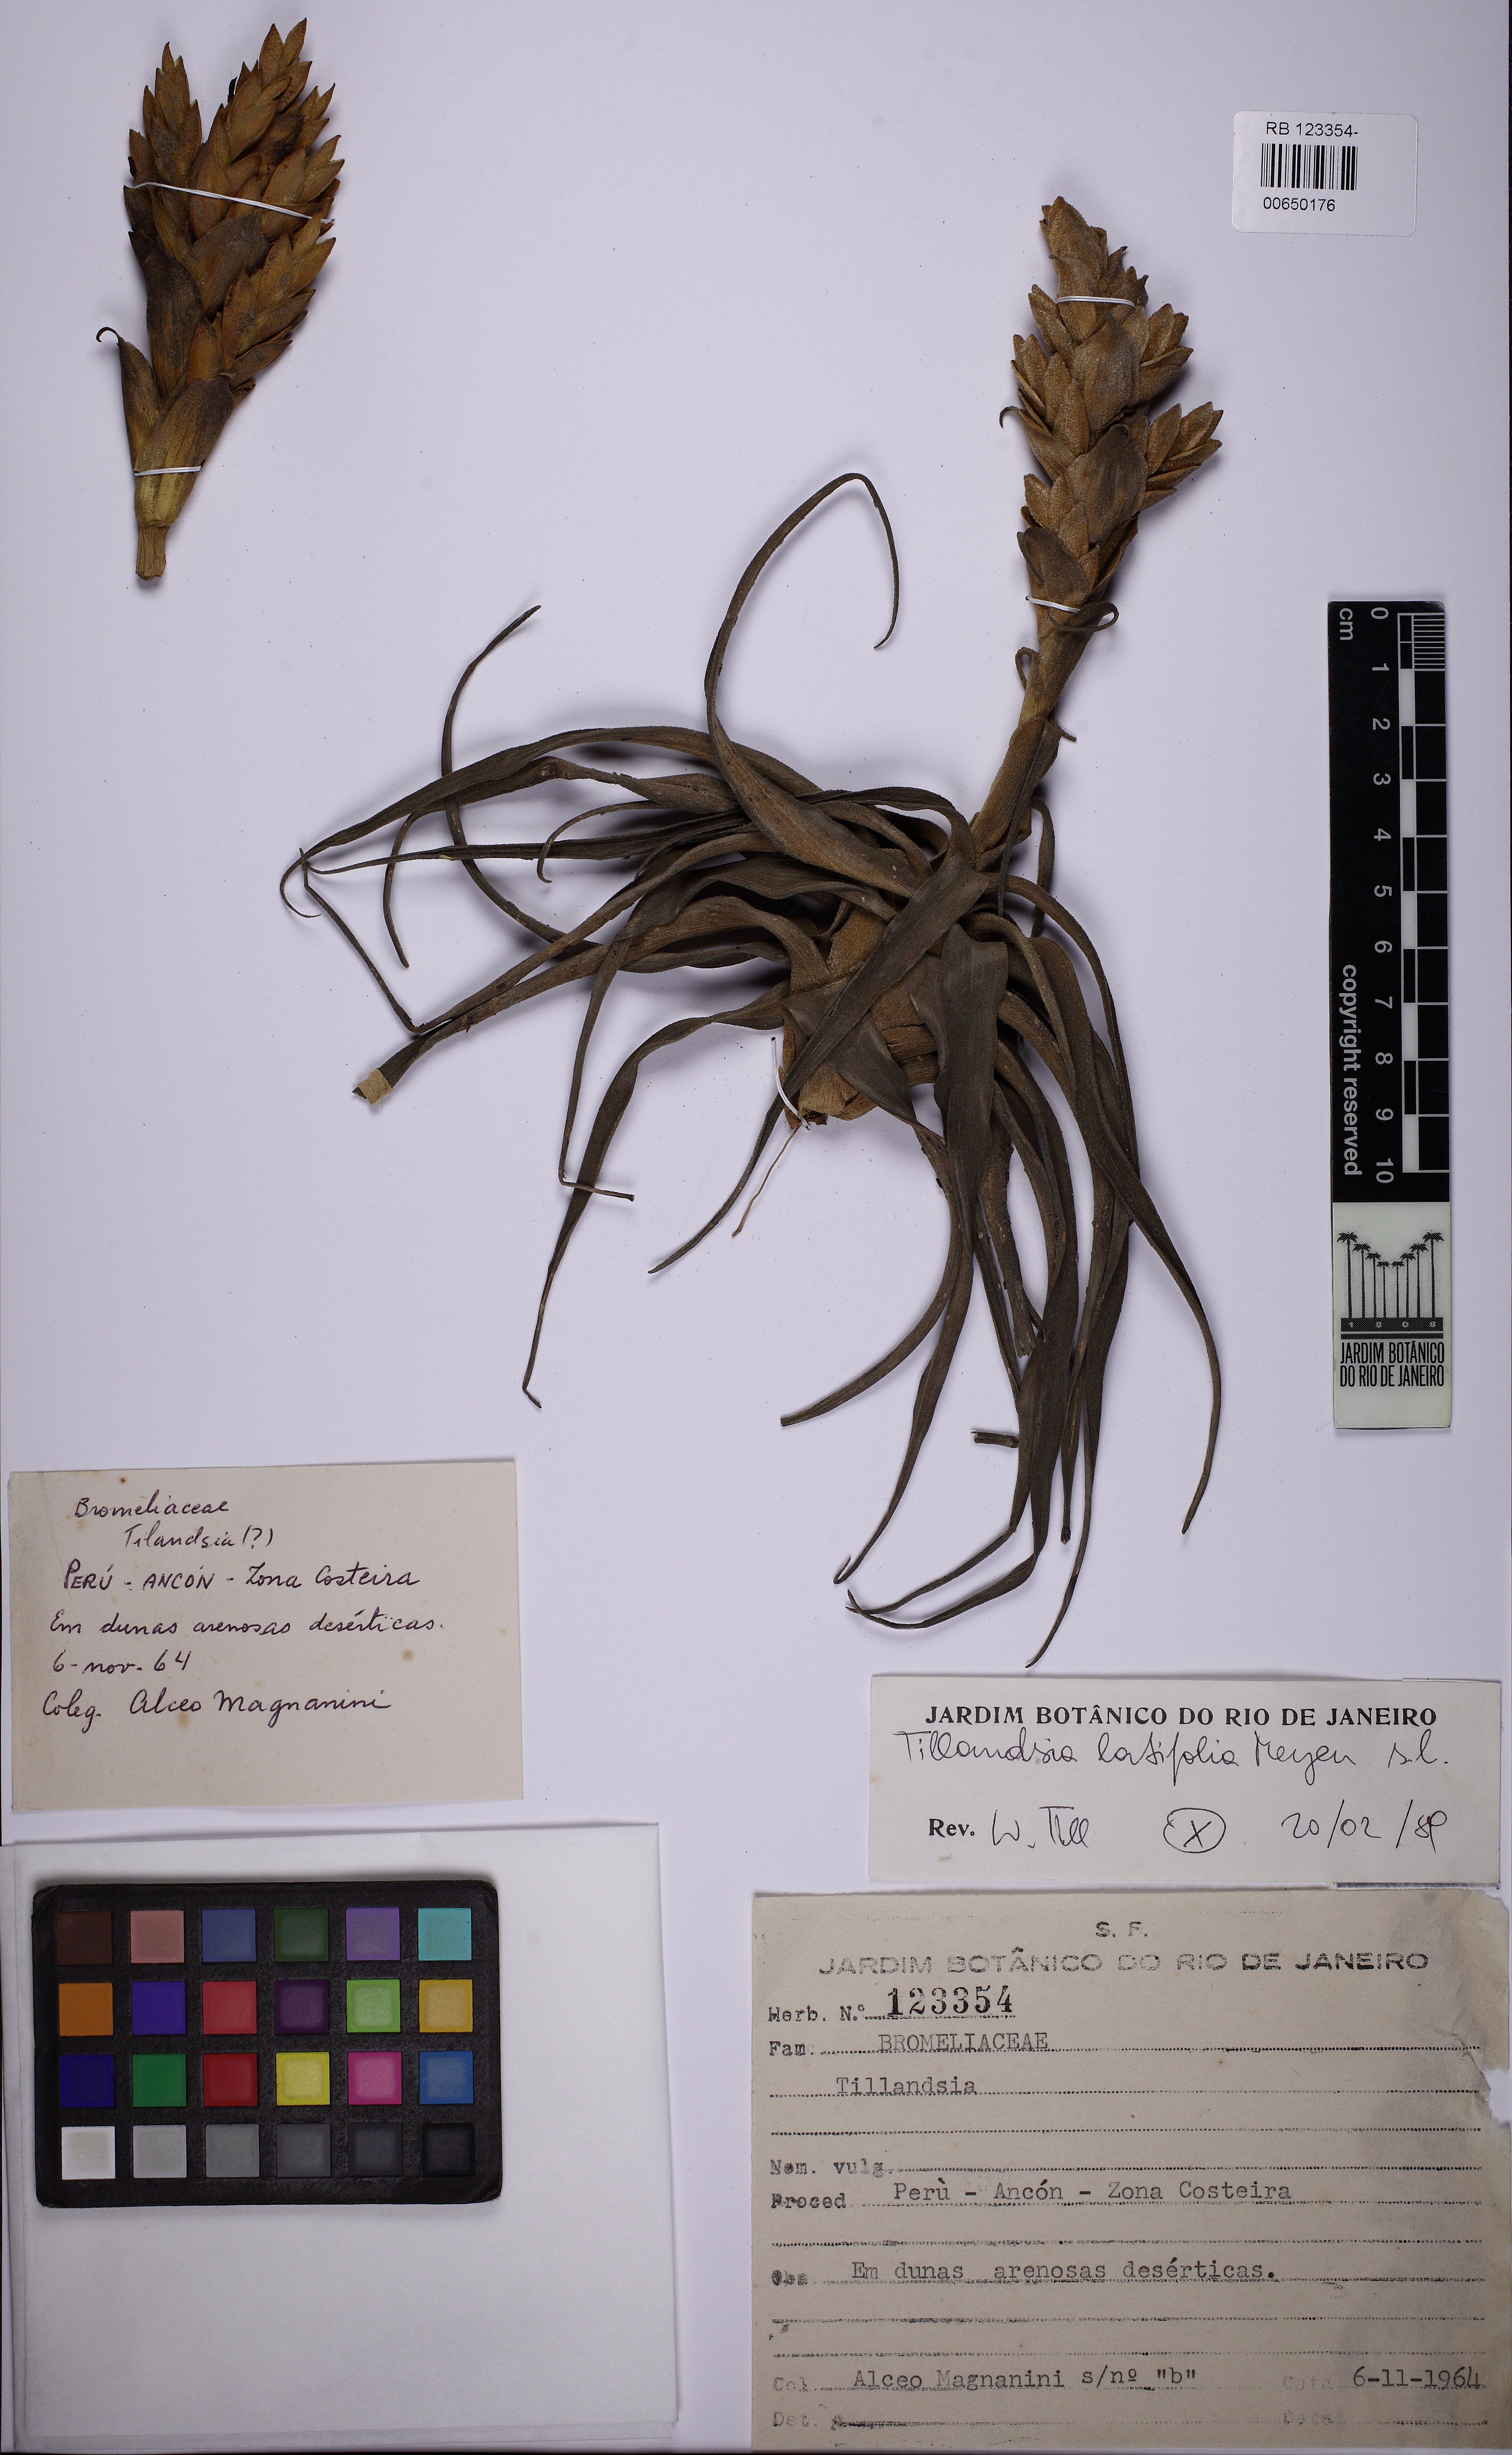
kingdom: Plantae
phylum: Tracheophyta
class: Liliopsida
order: Poales
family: Bromeliaceae
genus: Tillandsia
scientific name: Tillandsia latifolia
